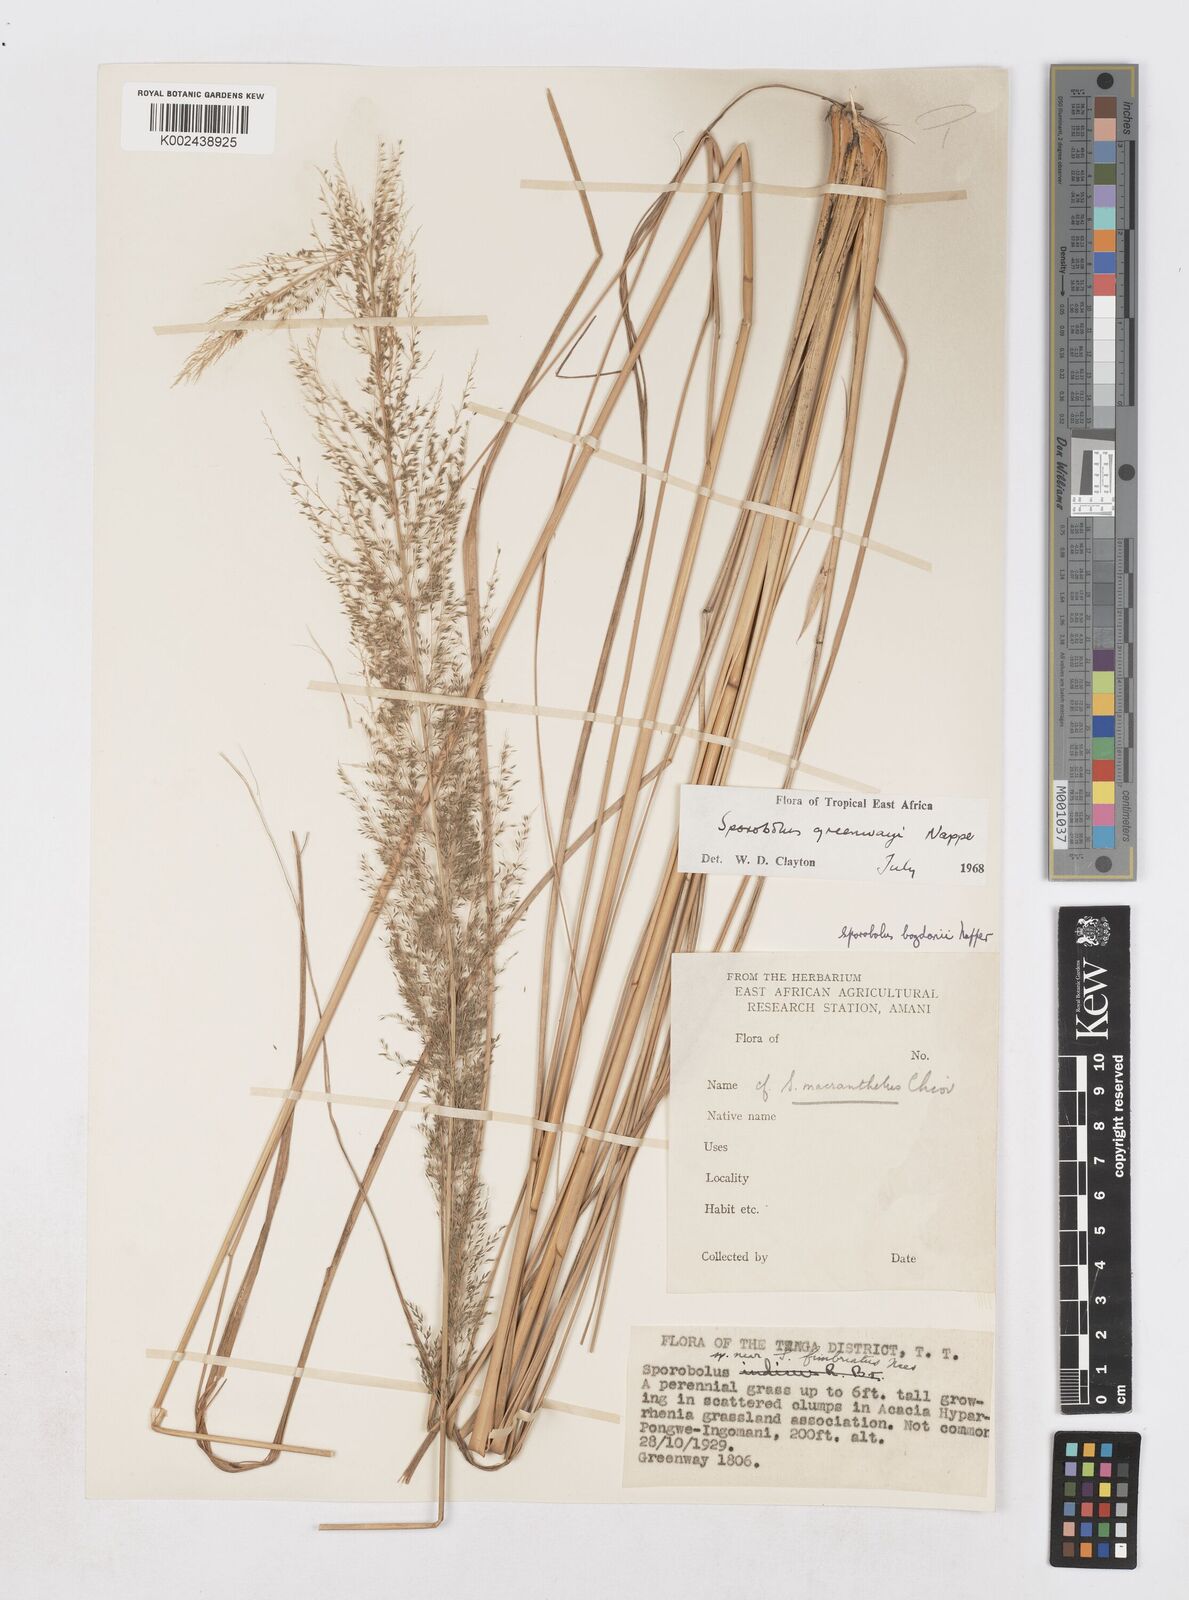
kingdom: Plantae
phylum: Tracheophyta
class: Liliopsida
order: Poales
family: Poaceae
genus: Sporobolus
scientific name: Sporobolus macranthelus
